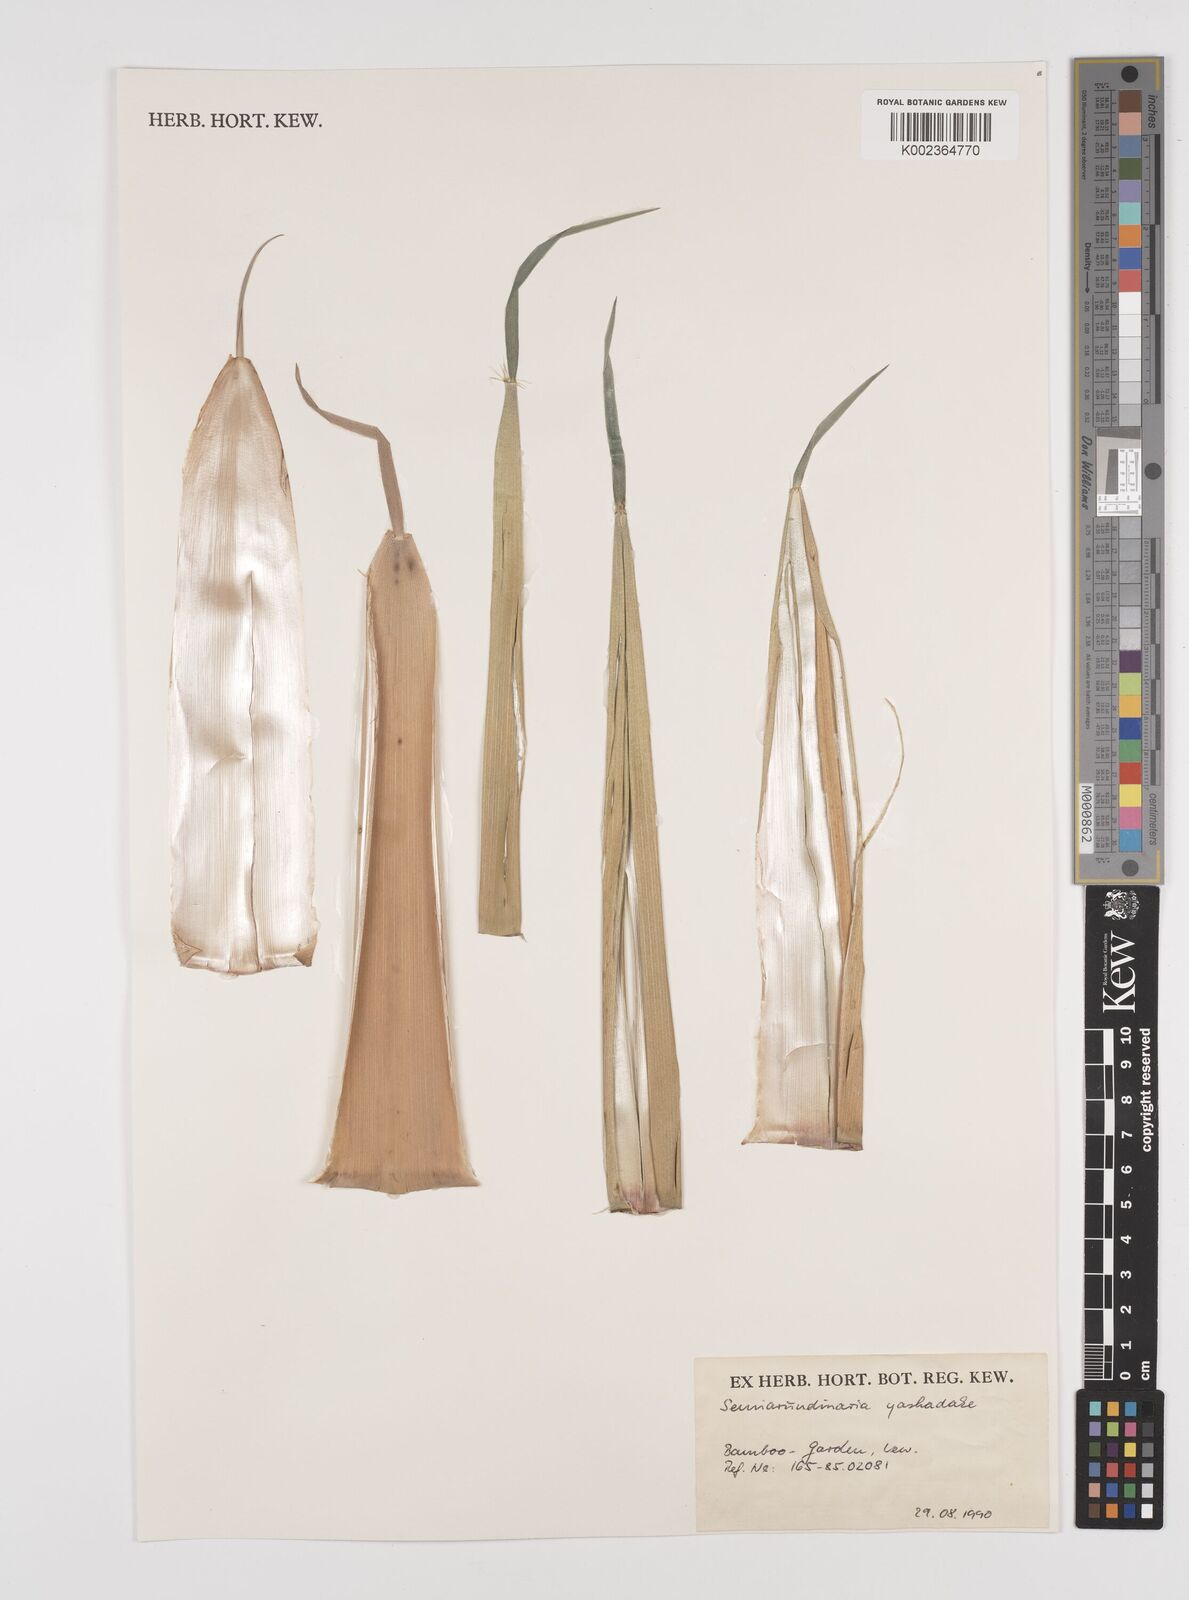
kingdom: Plantae
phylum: Tracheophyta
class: Liliopsida
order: Poales
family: Poaceae
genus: Semiarundinaria
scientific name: Semiarundinaria fastuosa
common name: Narihira bamboo
